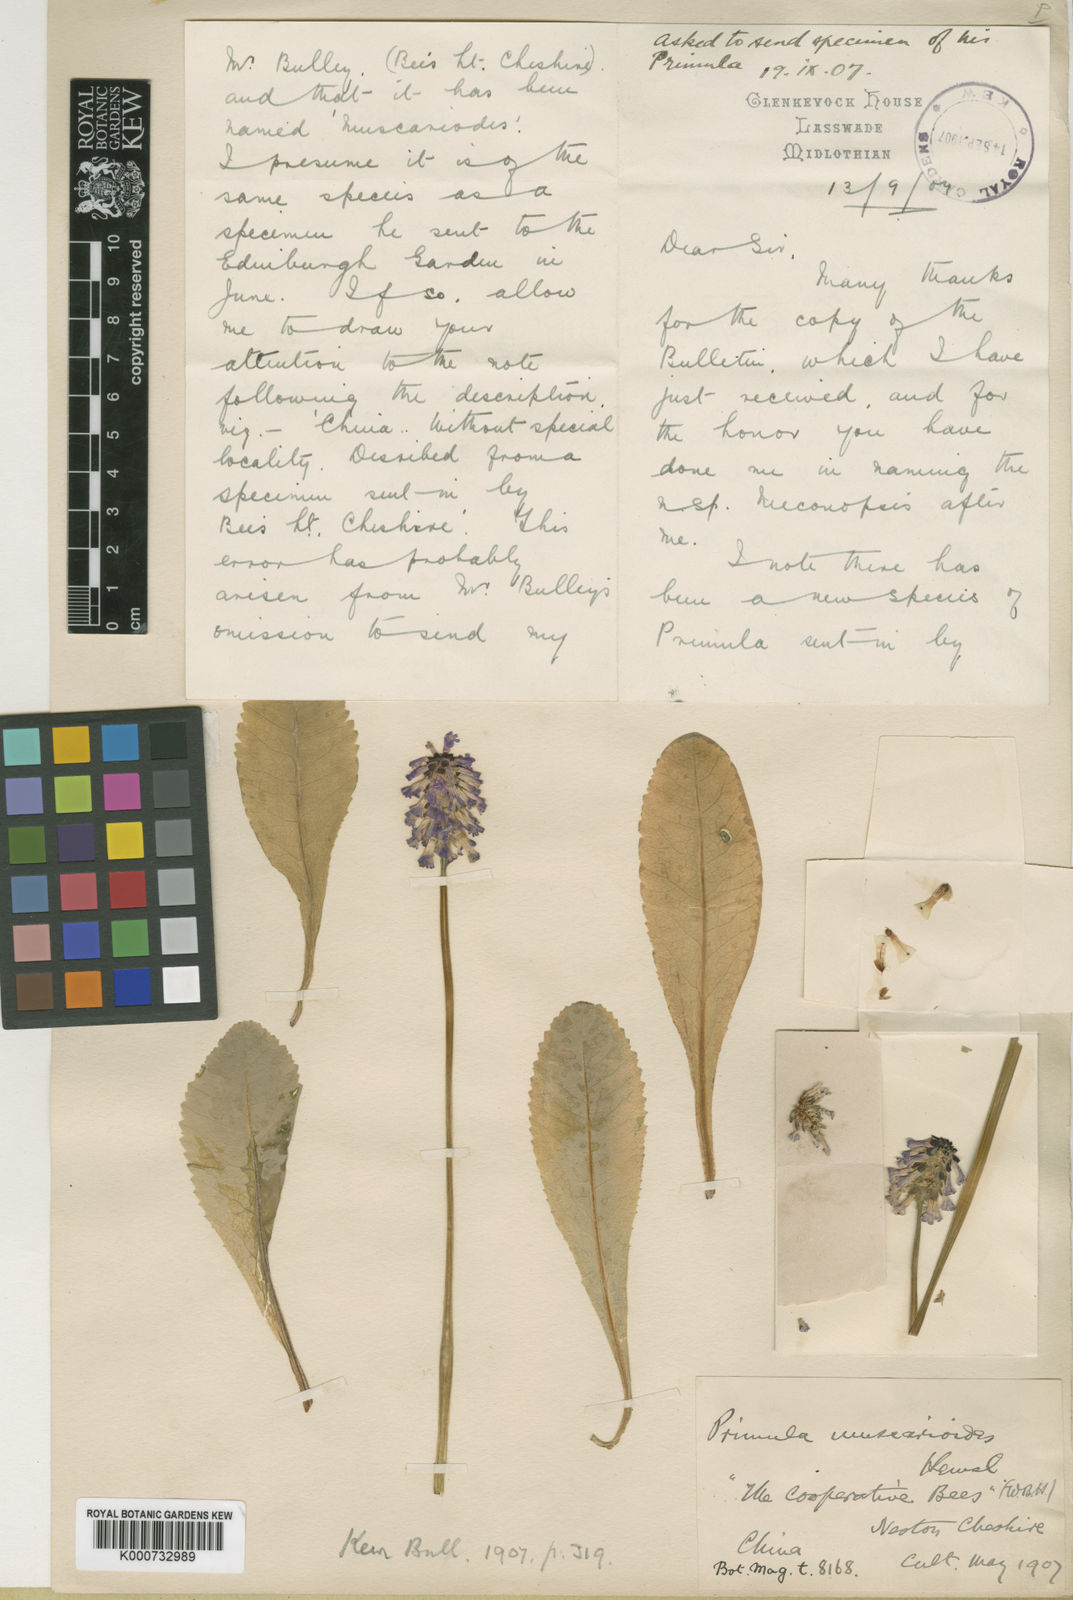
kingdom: Plantae
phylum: Tracheophyta
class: Magnoliopsida
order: Ericales
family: Primulaceae
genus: Primula
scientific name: Primula muscarioides
